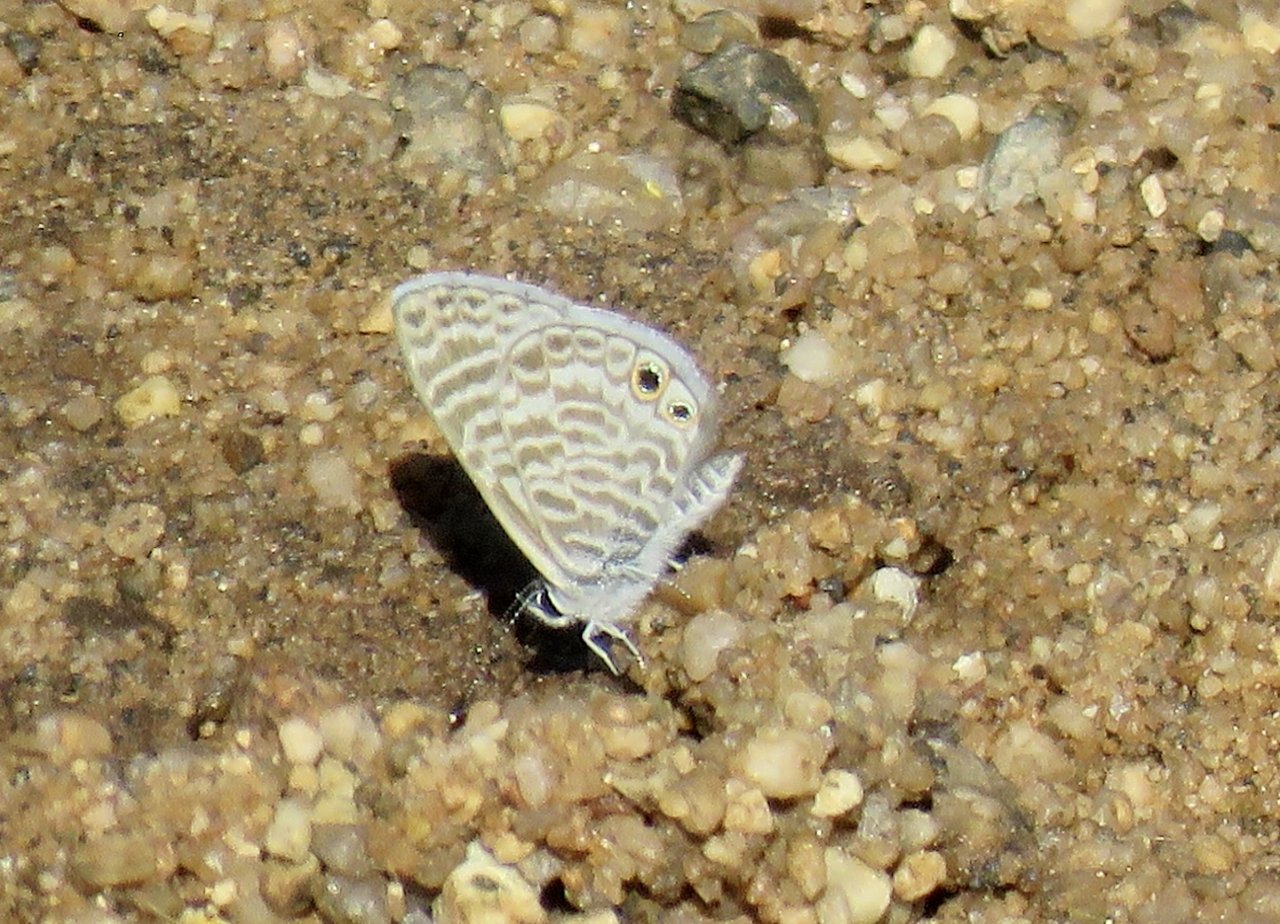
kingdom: Animalia
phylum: Arthropoda
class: Insecta
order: Lepidoptera
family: Lycaenidae
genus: Leptotes
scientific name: Leptotes marina
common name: Marine Blue
